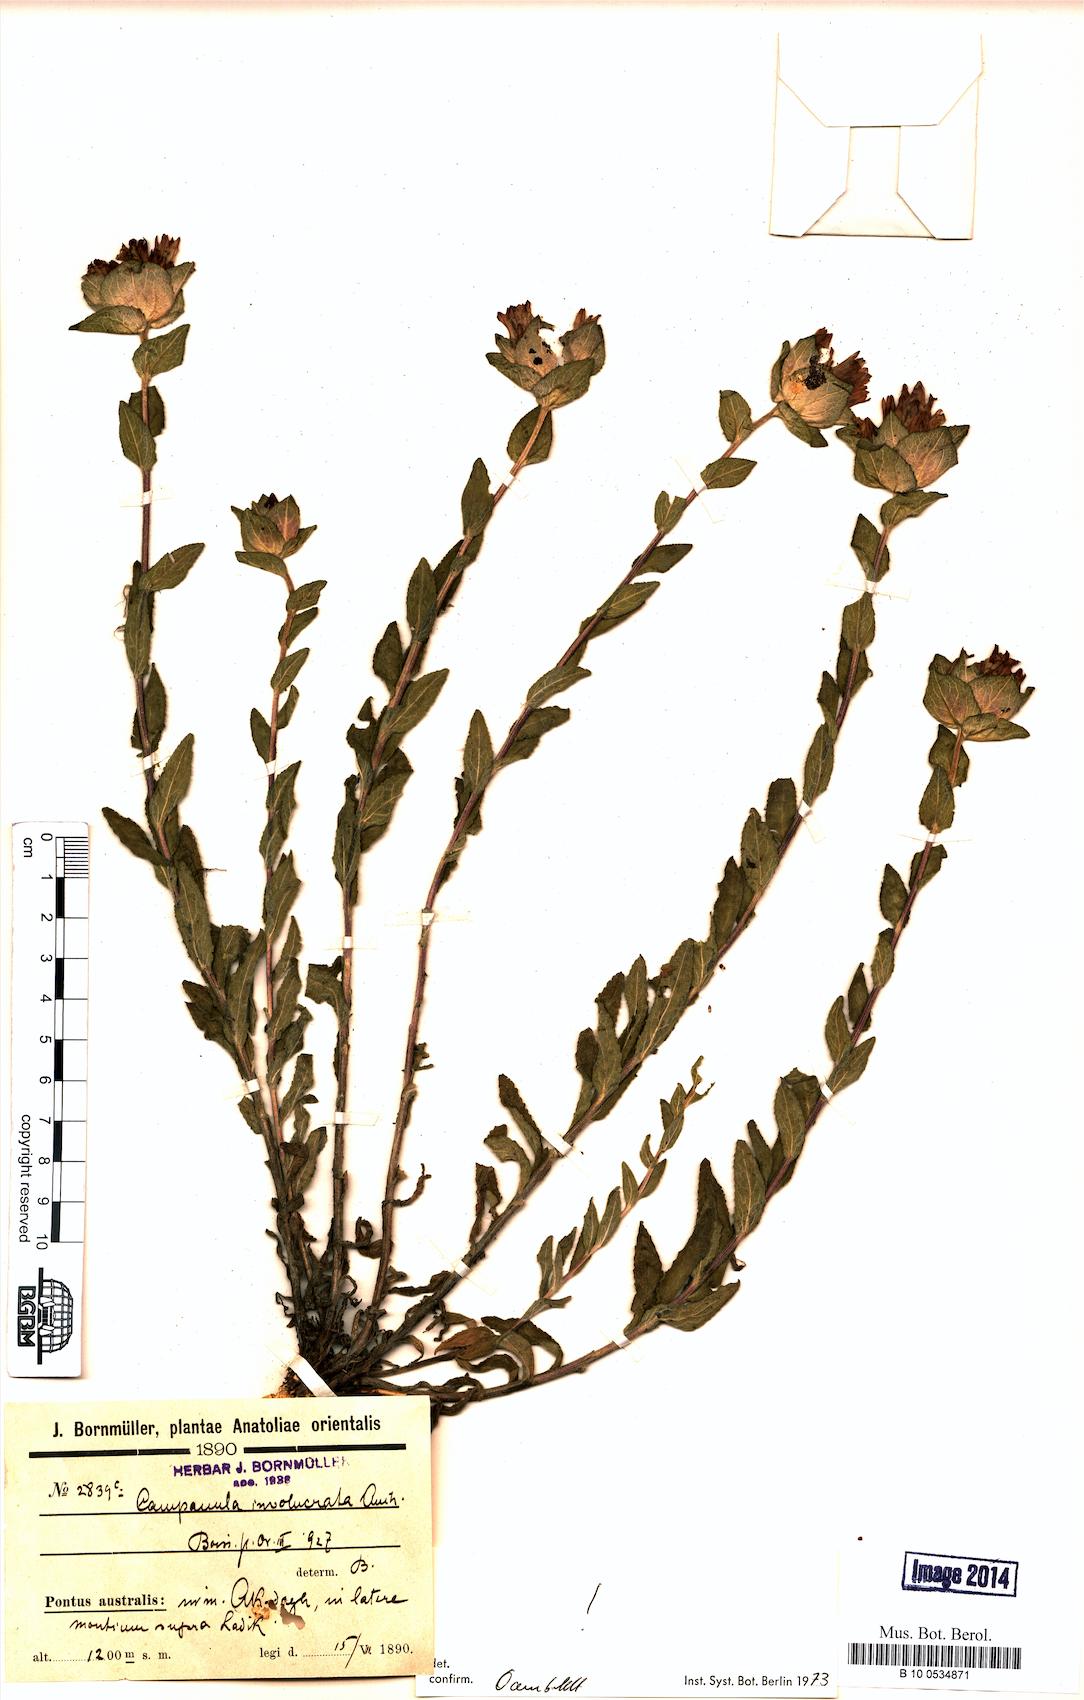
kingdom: Plantae
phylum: Tracheophyta
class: Magnoliopsida
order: Asterales
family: Campanulaceae
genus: Campanula
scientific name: Campanula involucrata
